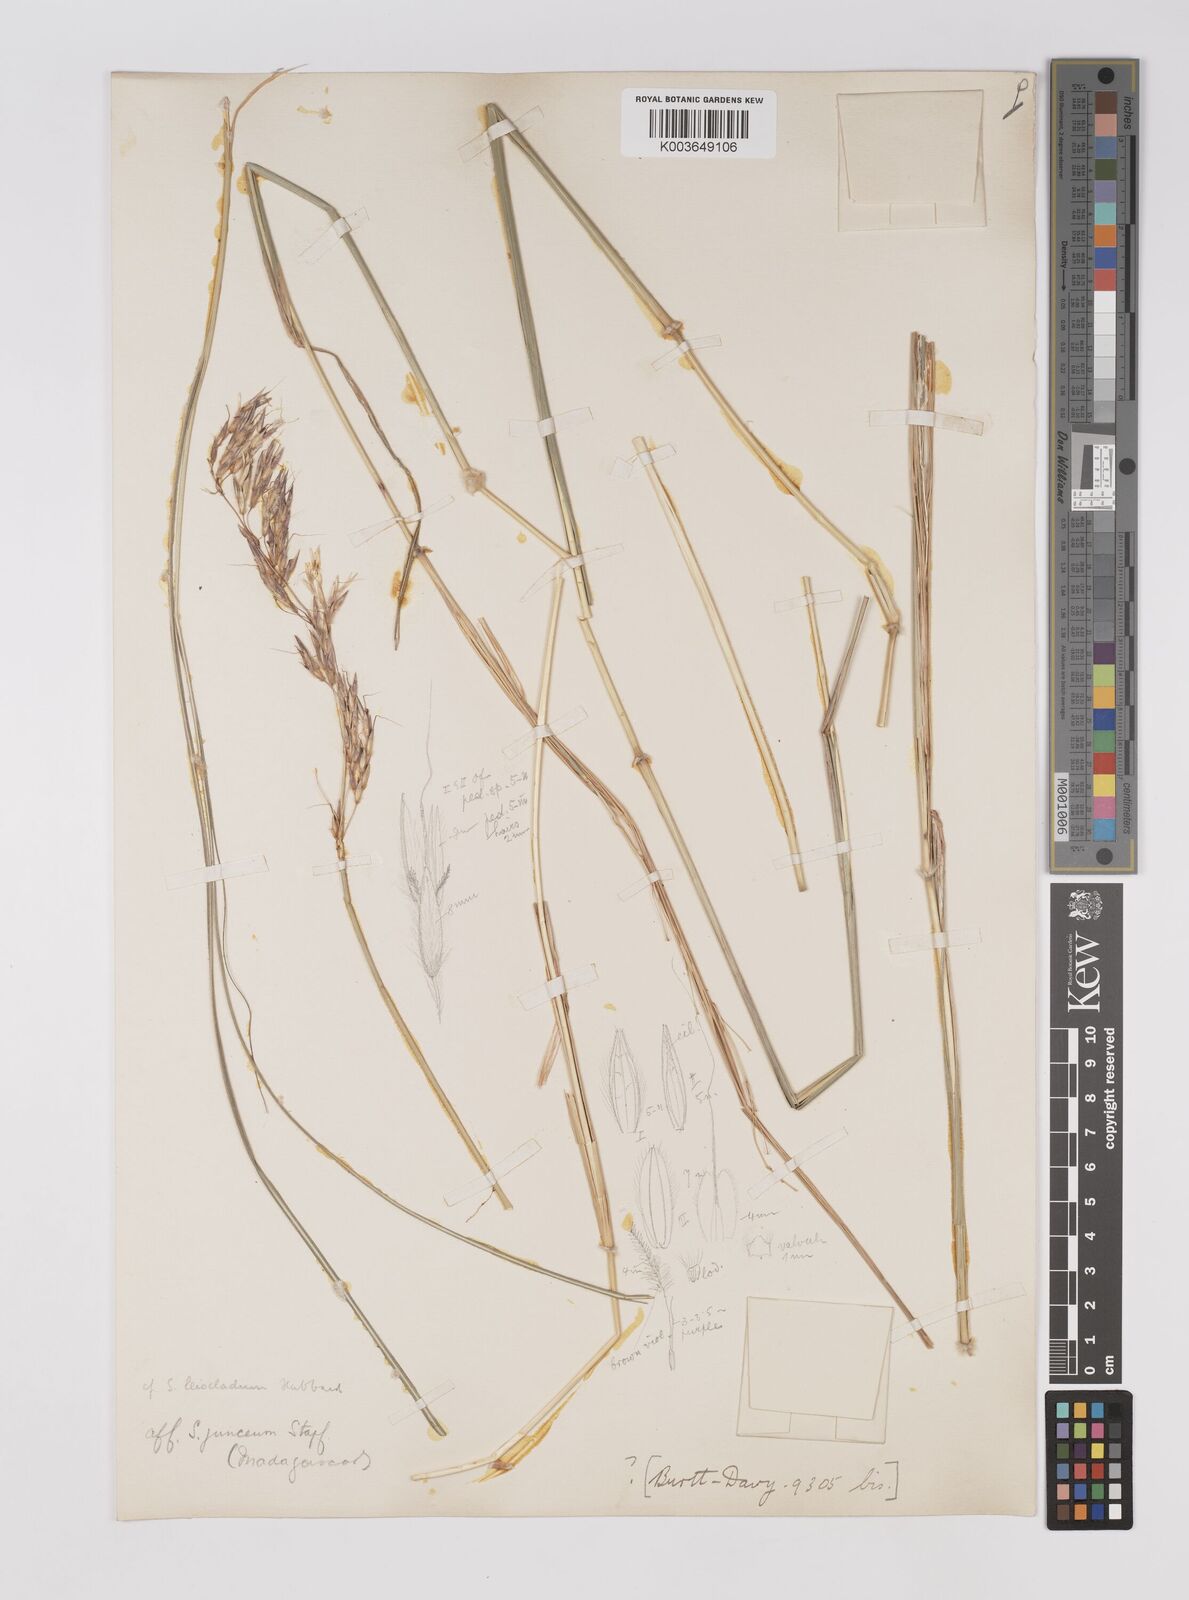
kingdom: Plantae
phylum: Tracheophyta
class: Liliopsida
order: Poales
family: Poaceae
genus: Sorghum
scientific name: Sorghum
